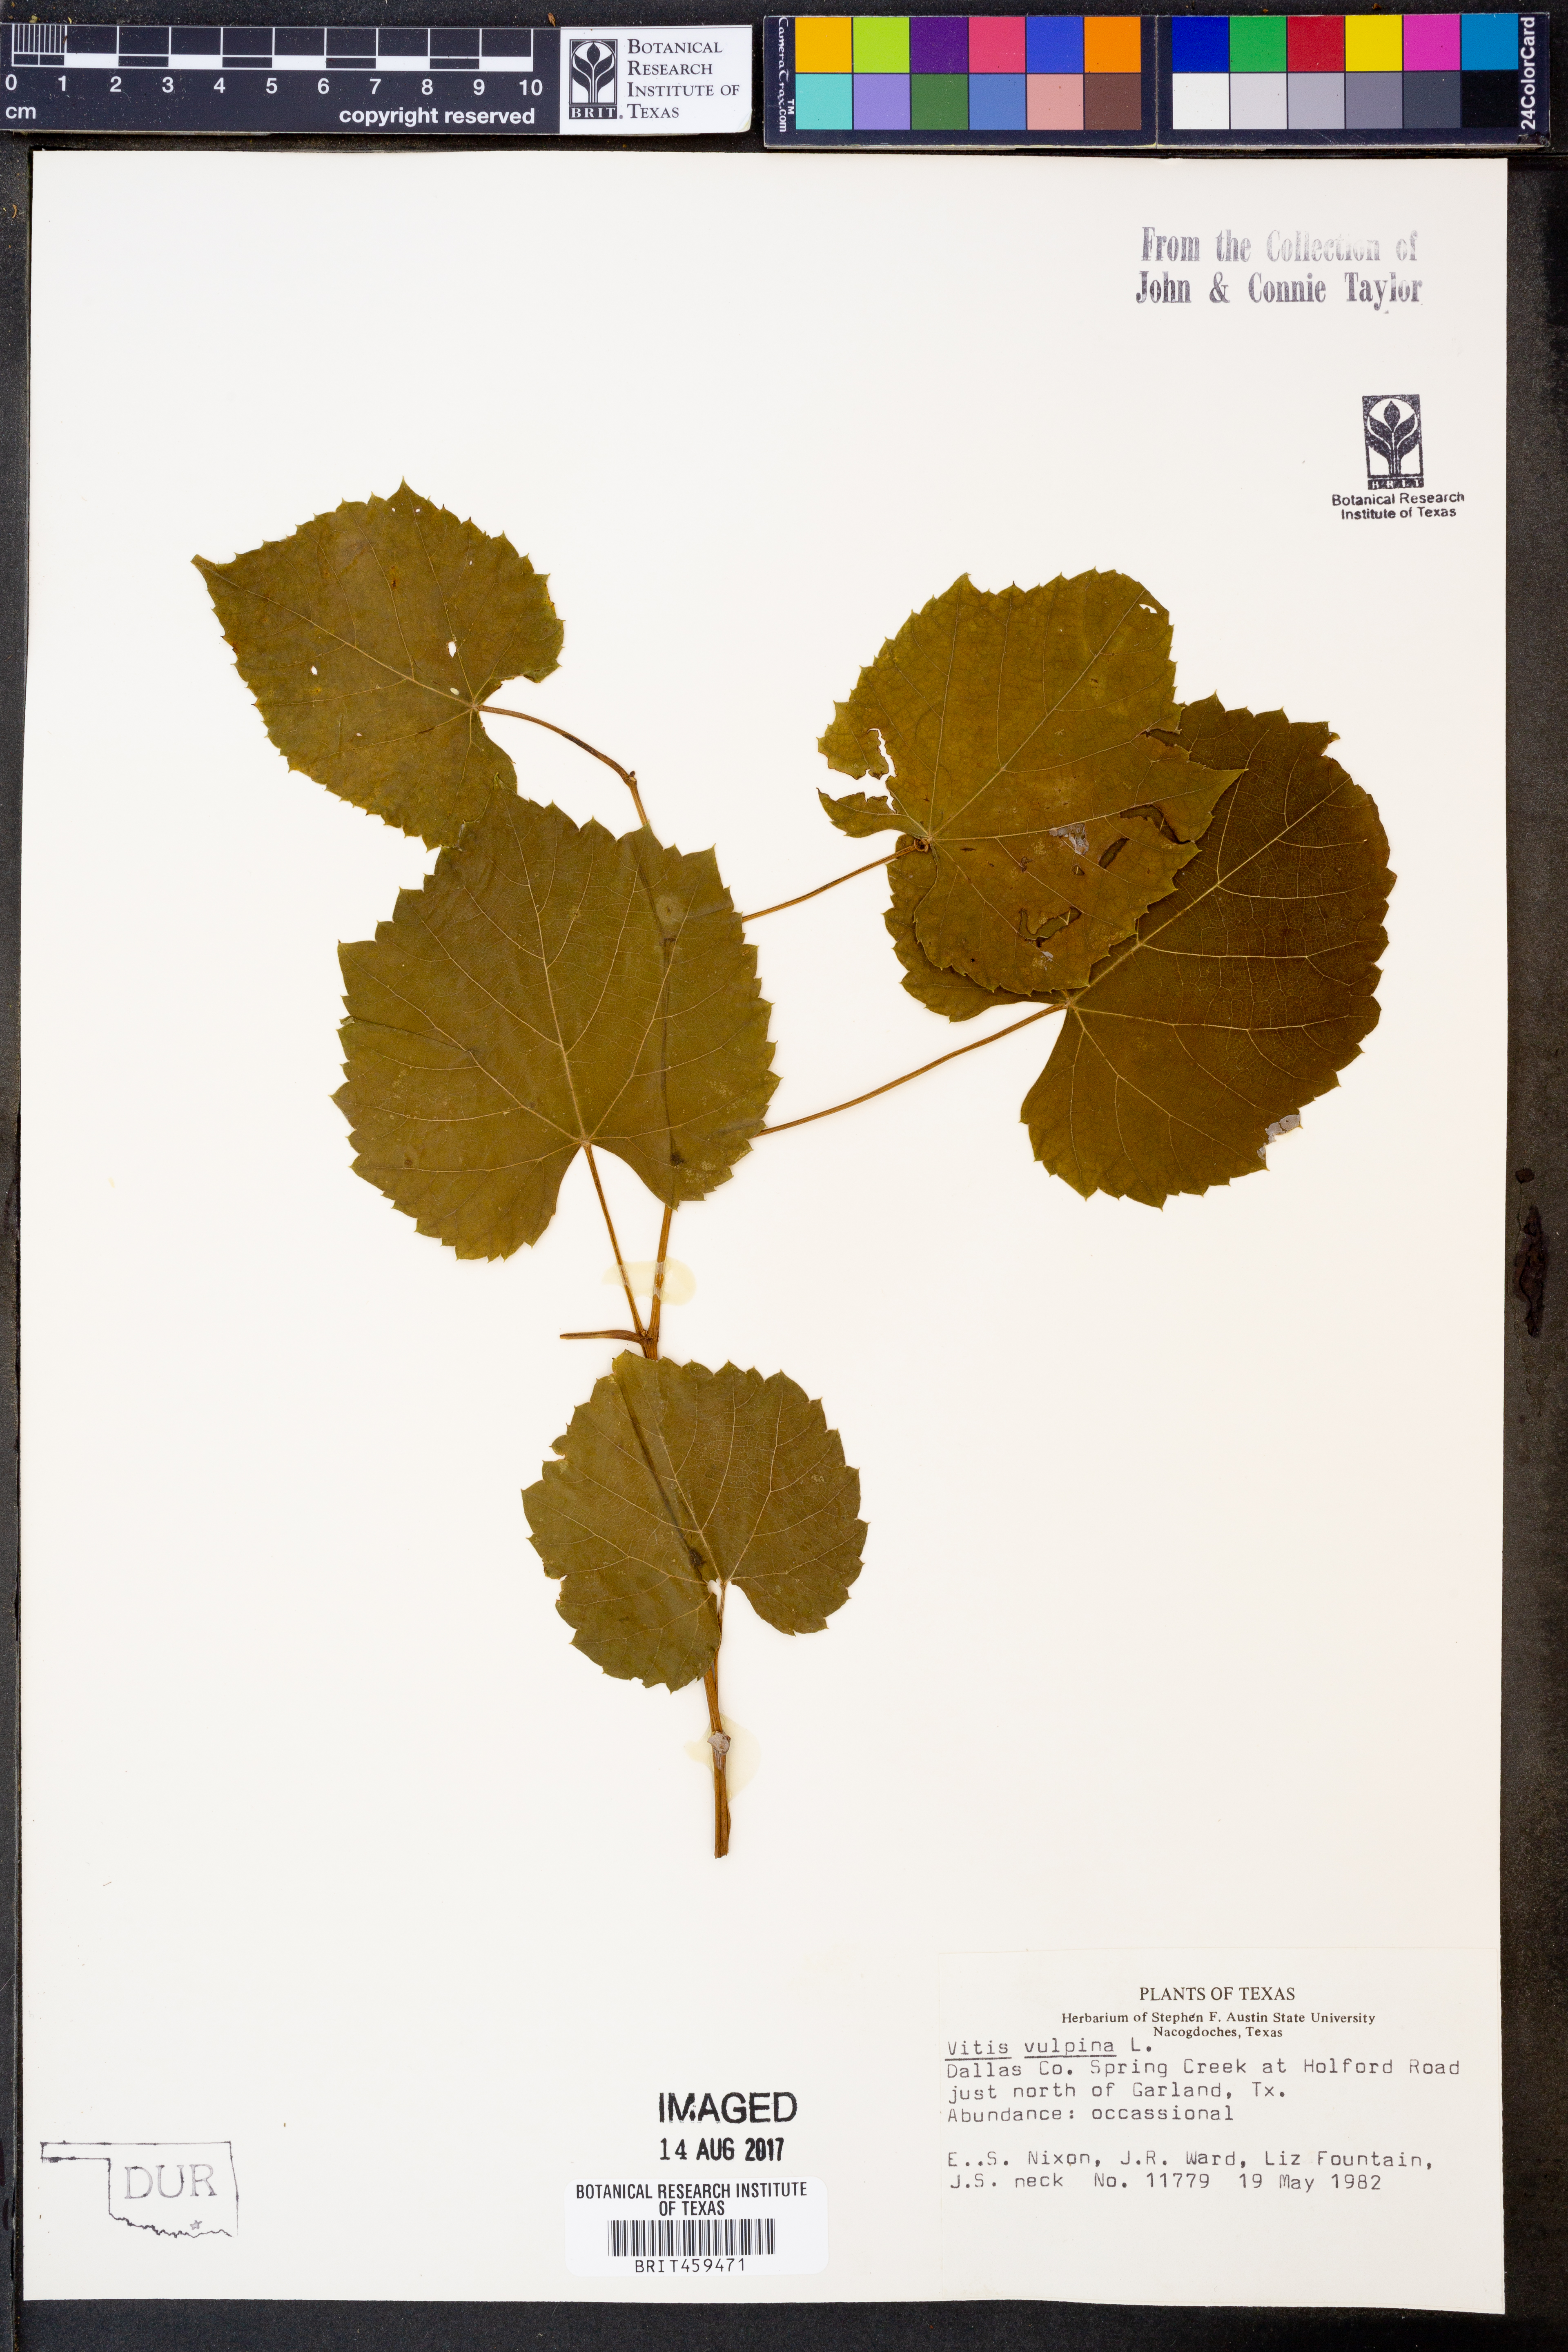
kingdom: Plantae
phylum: Tracheophyta
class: Magnoliopsida
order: Vitales
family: Vitaceae
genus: Vitis
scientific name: Vitis vulpina
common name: Frost grape
